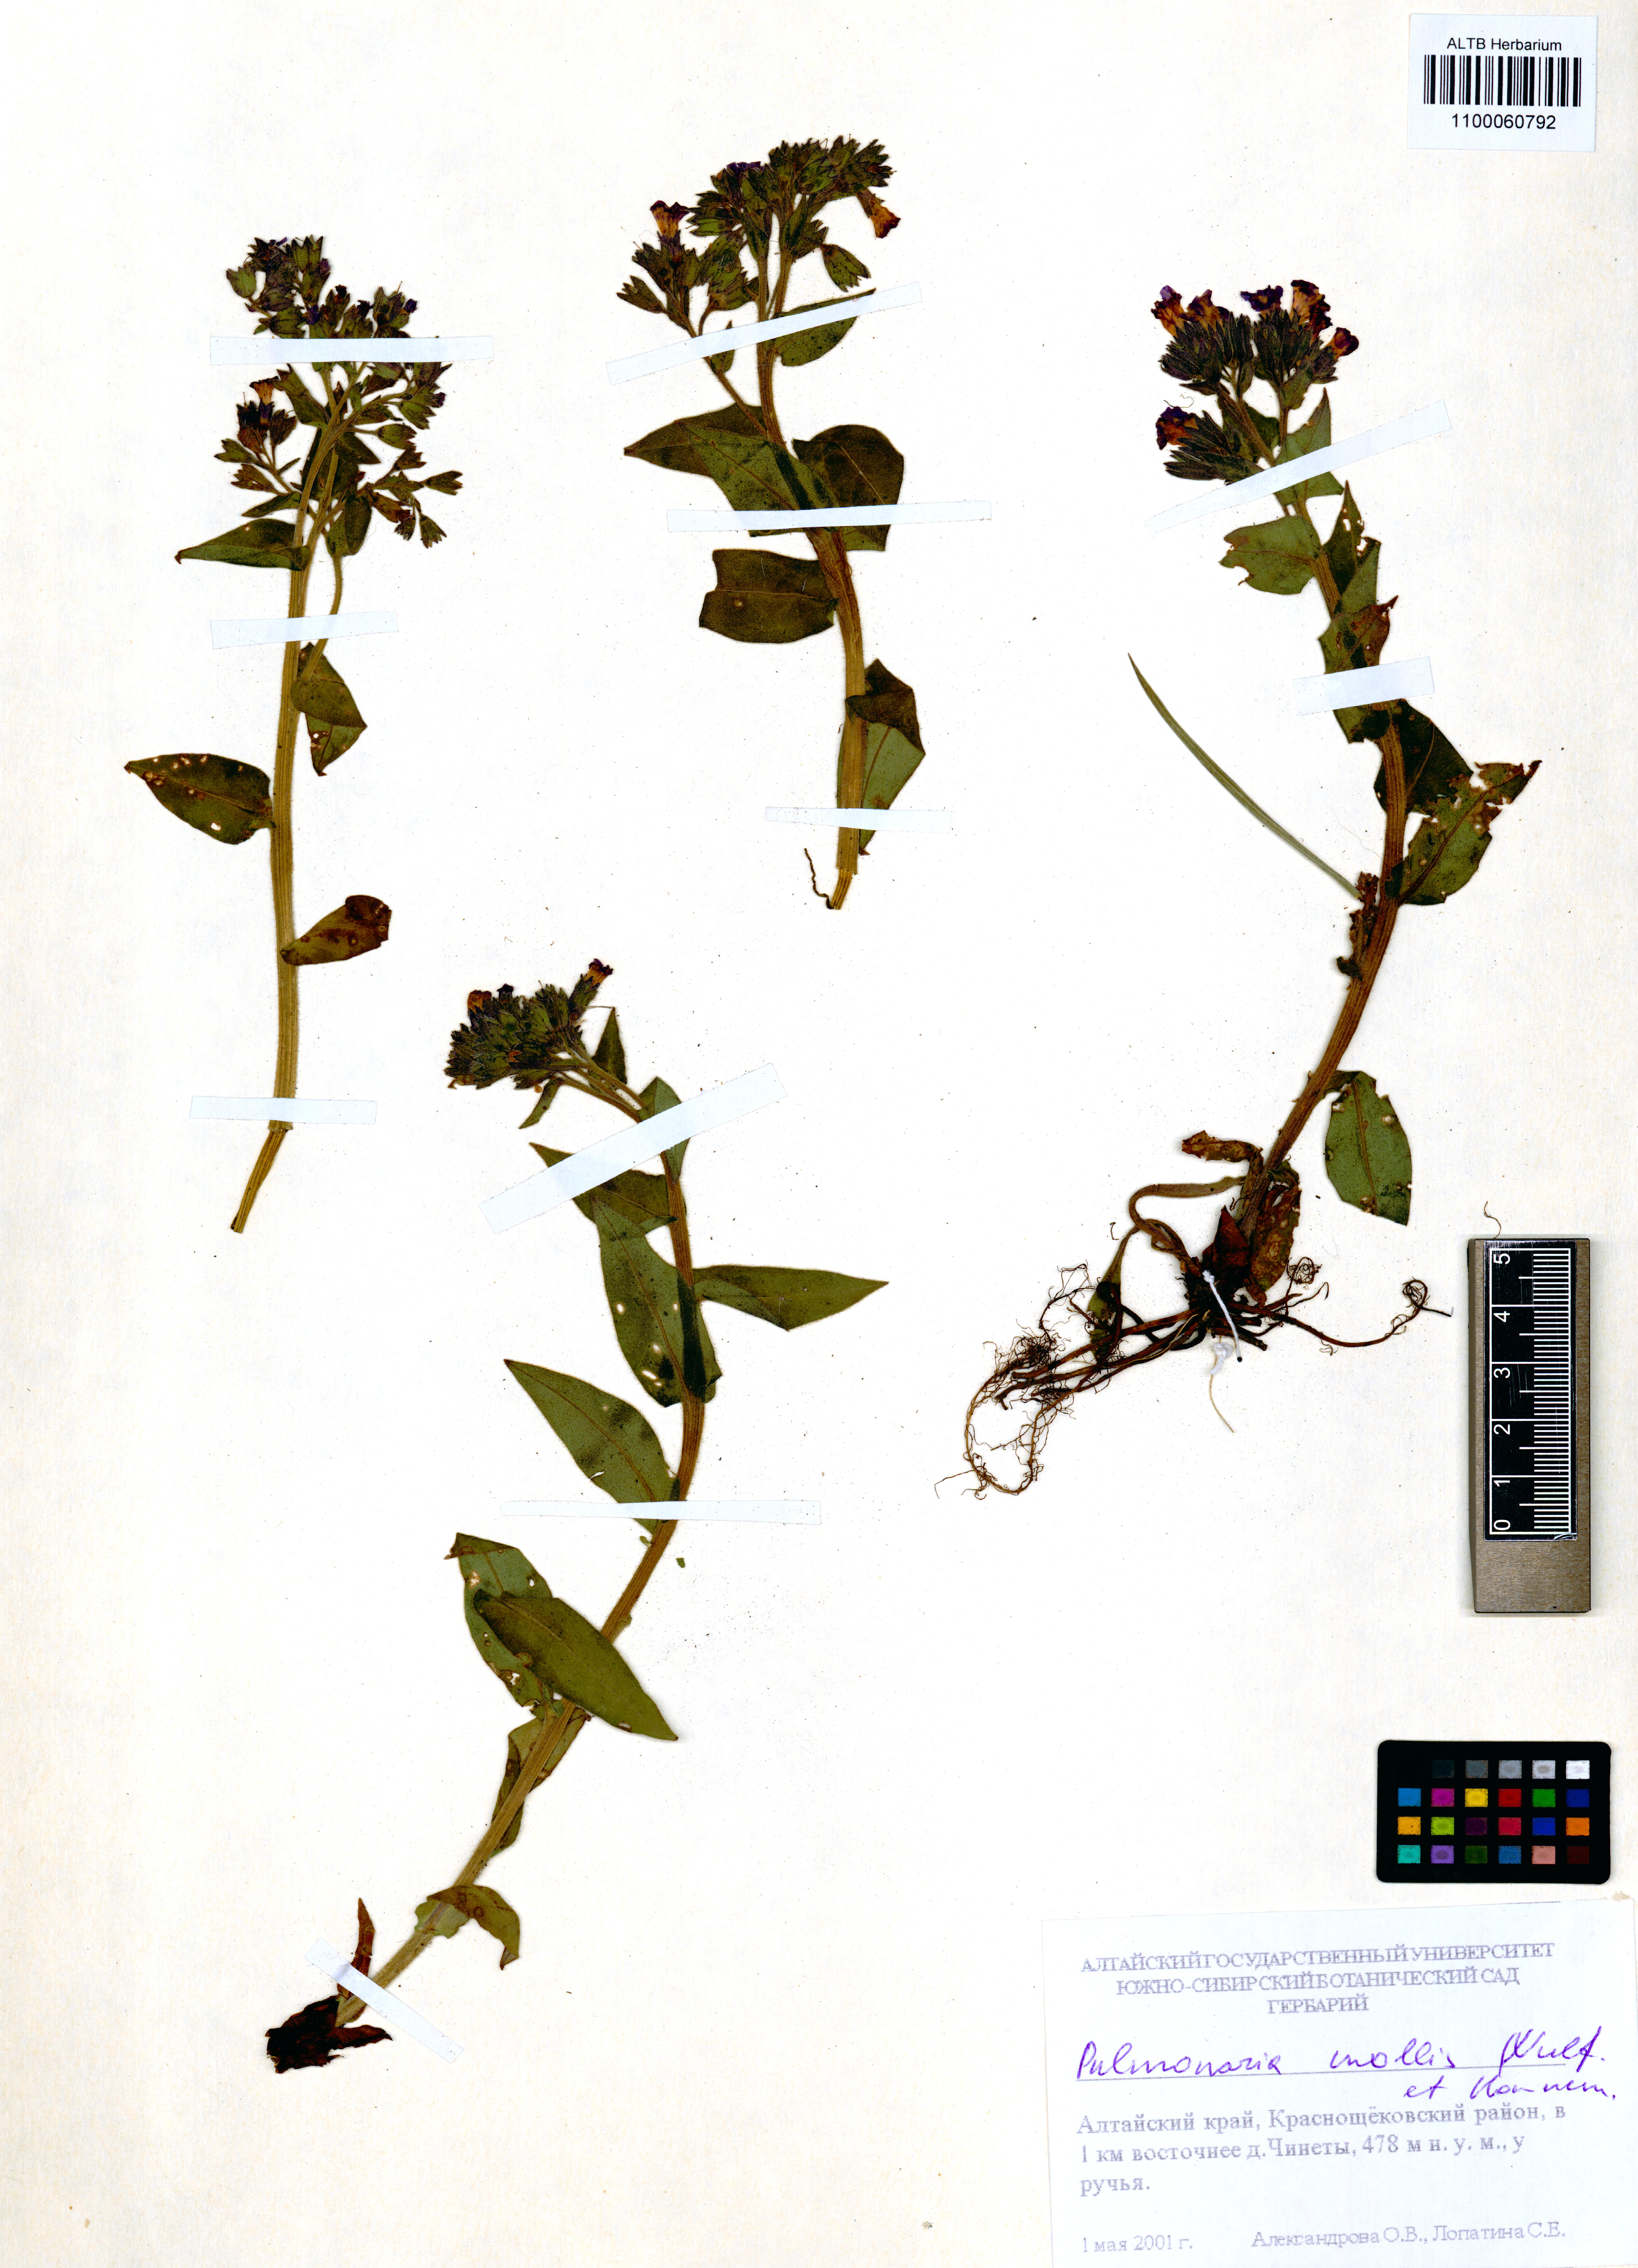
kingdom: Plantae
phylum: Tracheophyta
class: Magnoliopsida
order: Boraginales
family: Boraginaceae
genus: Pulmonaria
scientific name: Pulmonaria mollis
